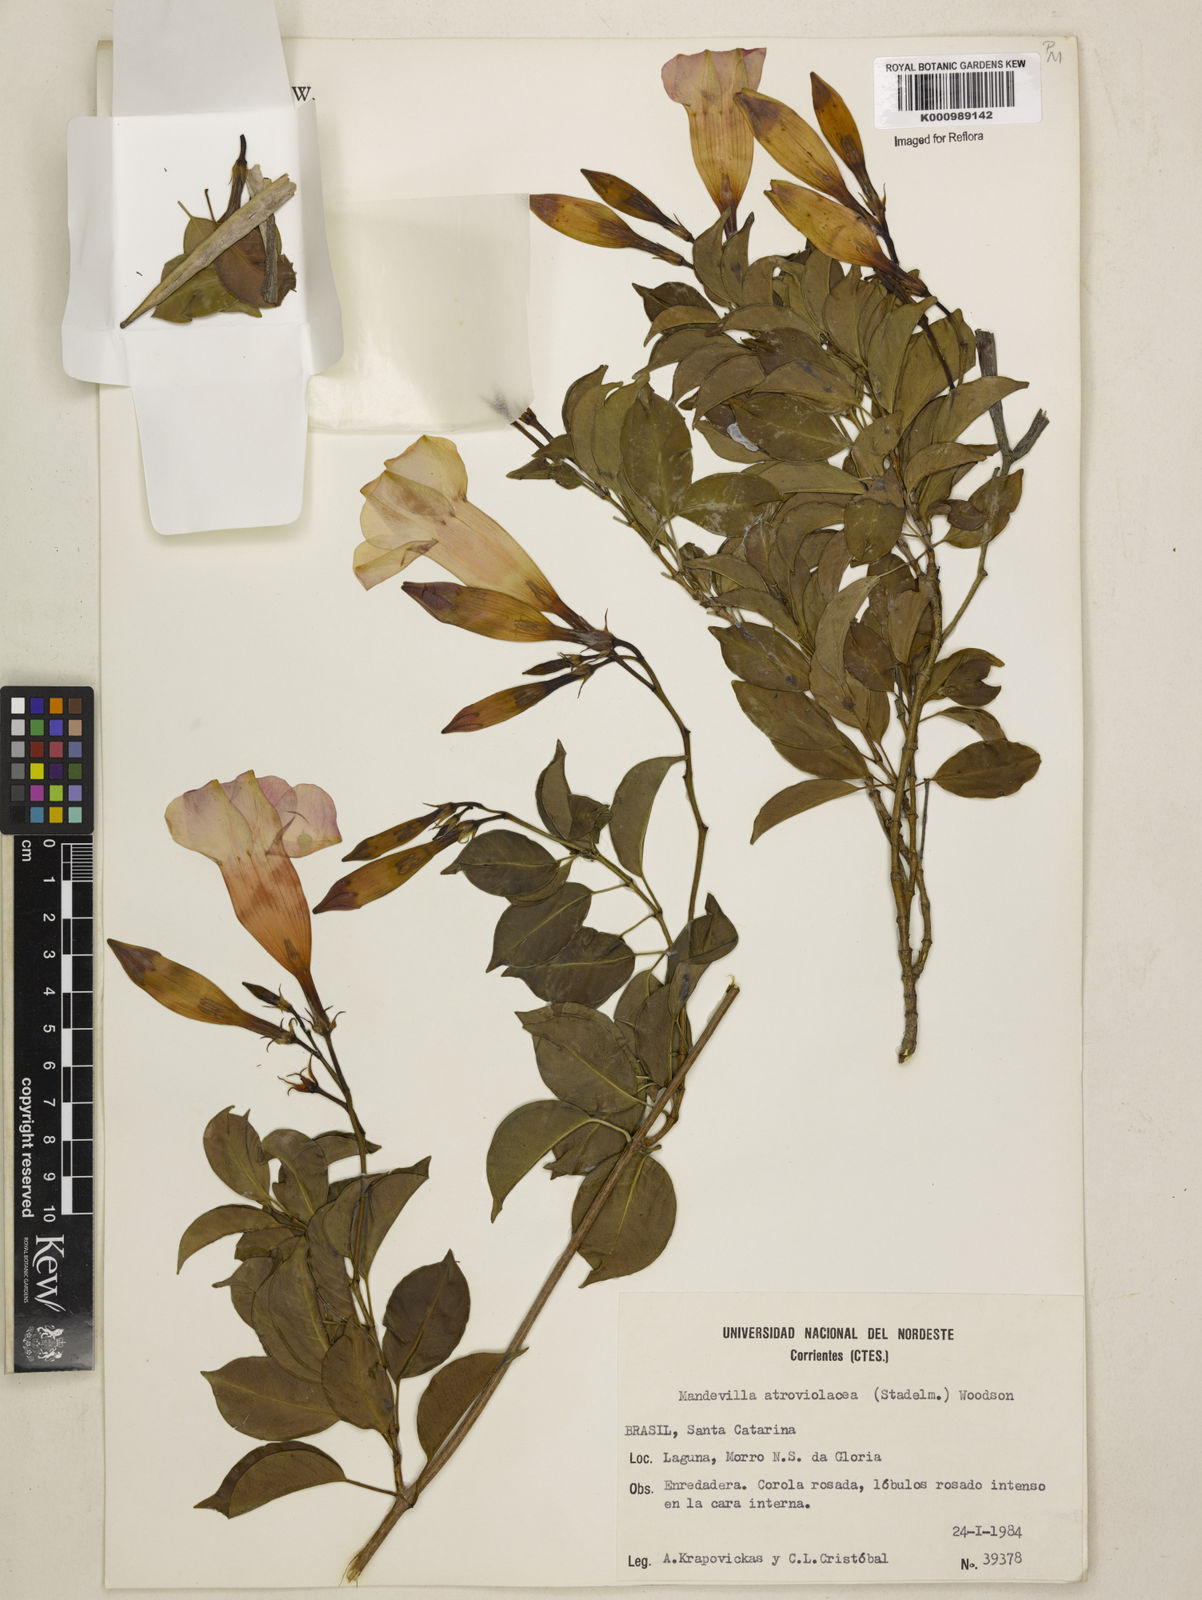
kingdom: Plantae
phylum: Tracheophyta
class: Magnoliopsida
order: Gentianales
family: Apocynaceae
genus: Mandevilla
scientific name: Mandevilla atroviolacea
